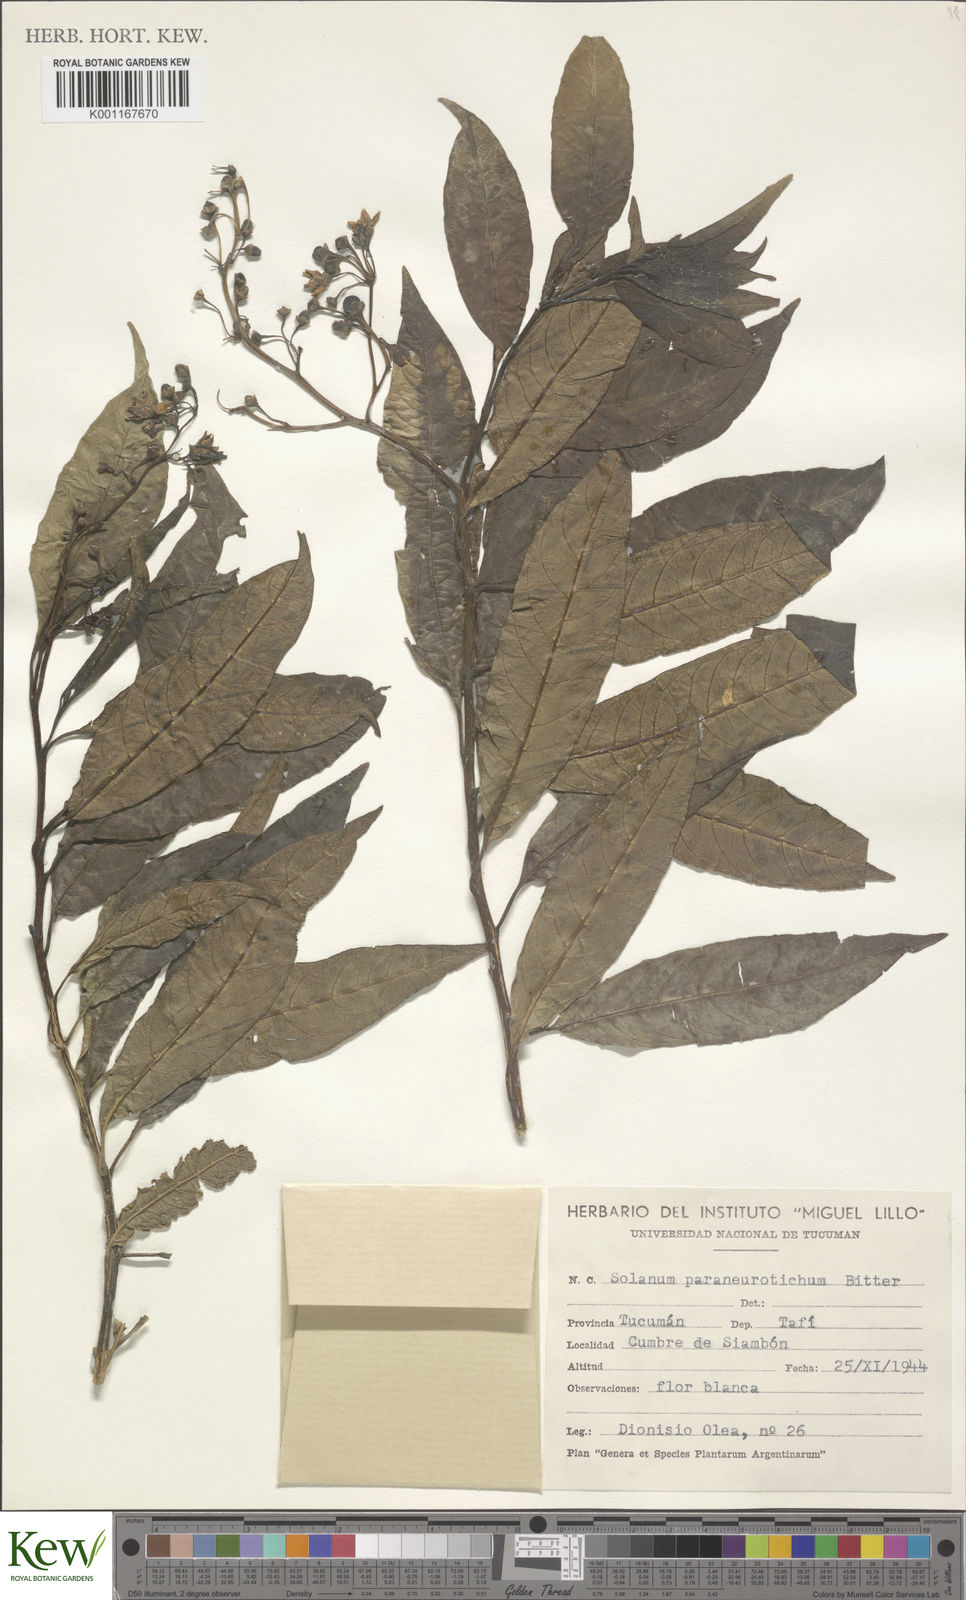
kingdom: Plantae
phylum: Tracheophyta
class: Magnoliopsida
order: Solanales
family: Solanaceae
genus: Solanum
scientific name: Solanum
